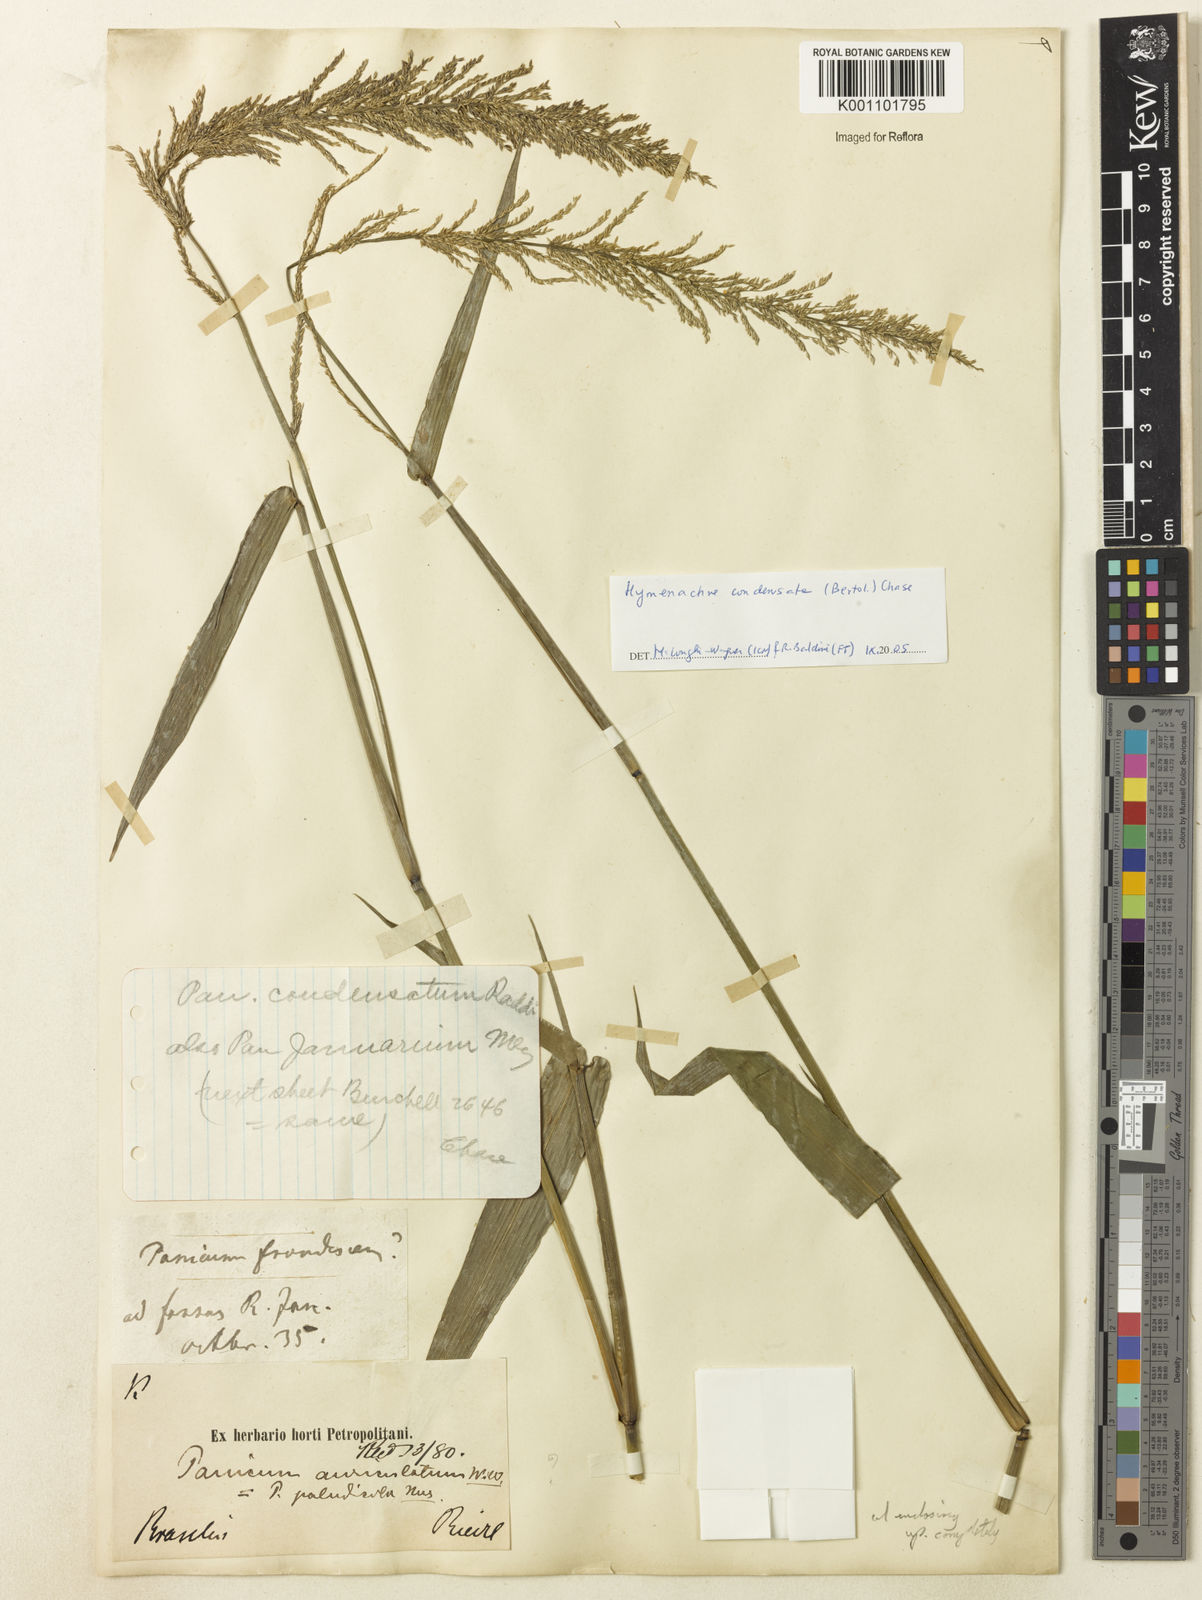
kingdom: Plantae
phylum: Tracheophyta
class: Liliopsida
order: Poales
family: Poaceae
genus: Hymenachne
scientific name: Hymenachne condensata
